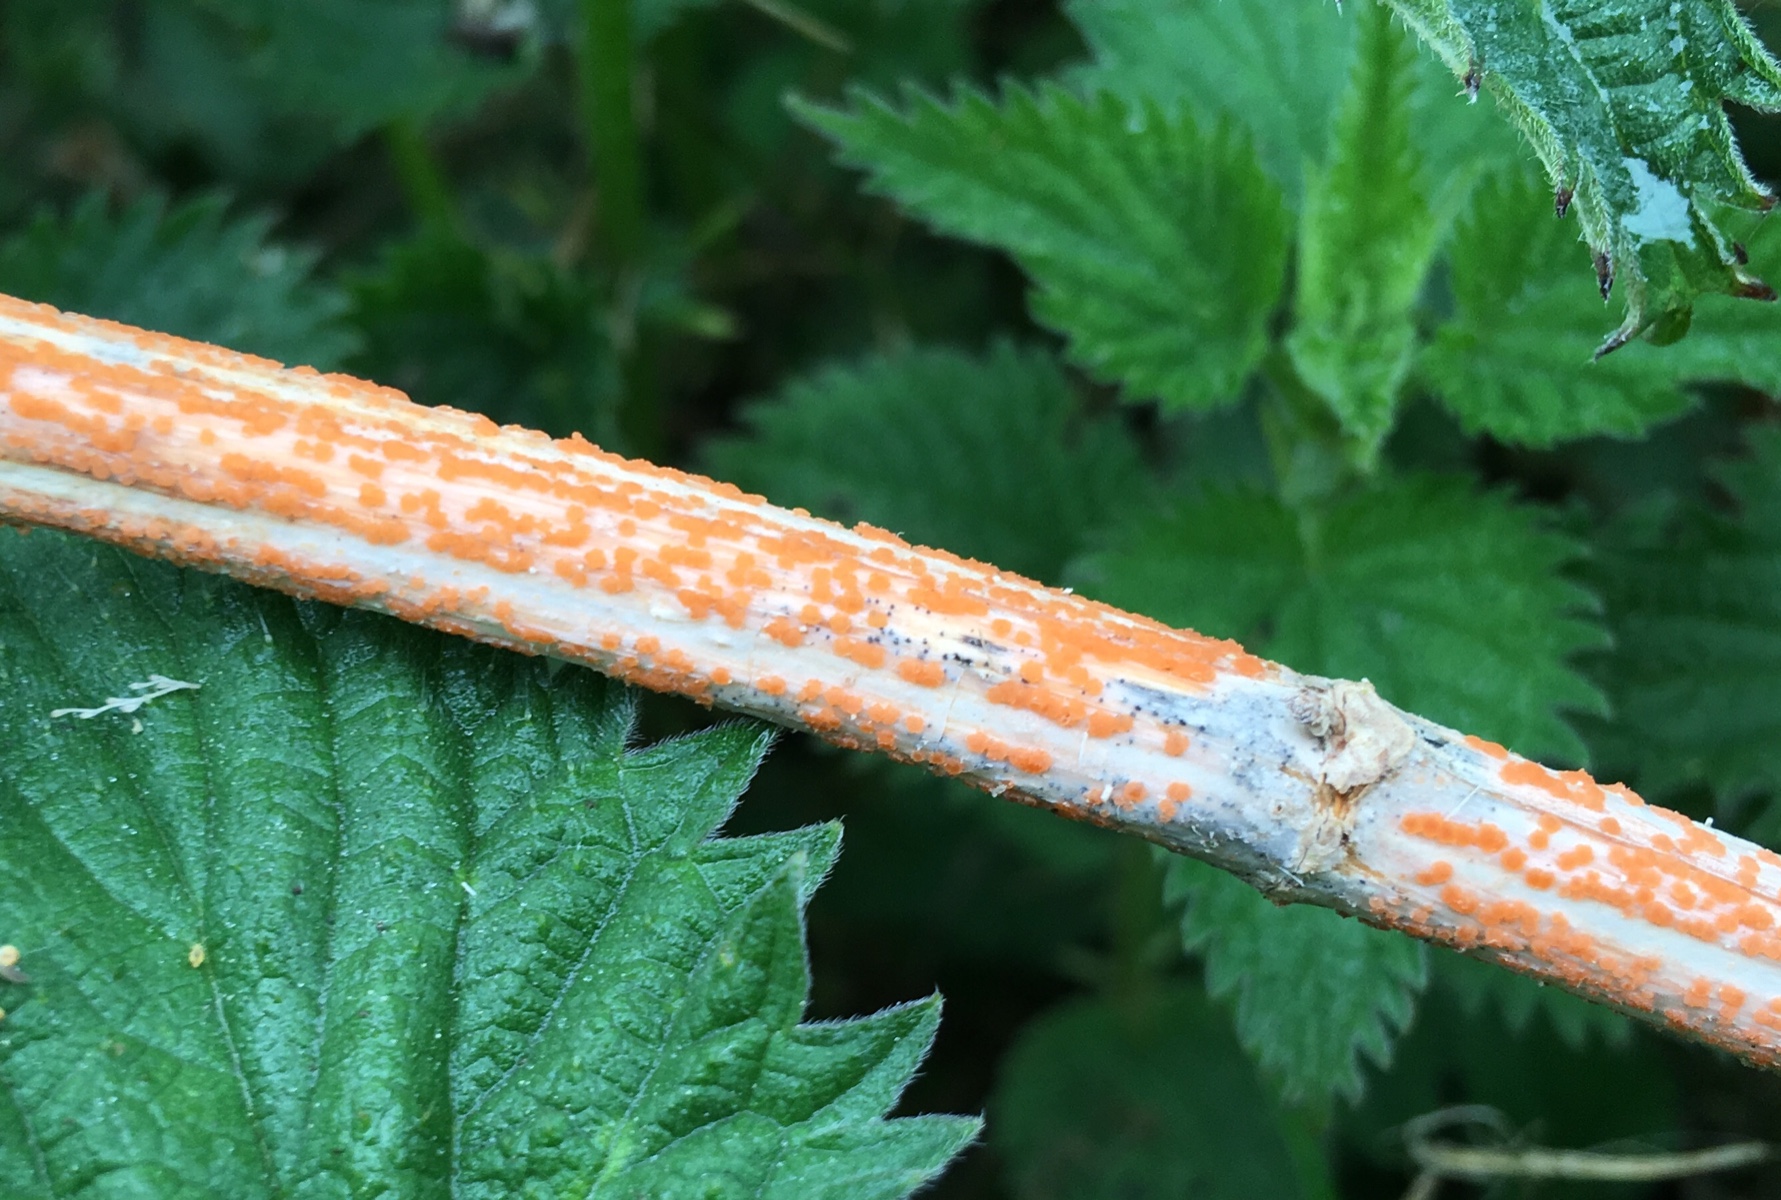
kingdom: Fungi
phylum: Ascomycota
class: Leotiomycetes
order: Helotiales
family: Calloriaceae
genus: Calloria
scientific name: Calloria urticae
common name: nælde-orangeskive
